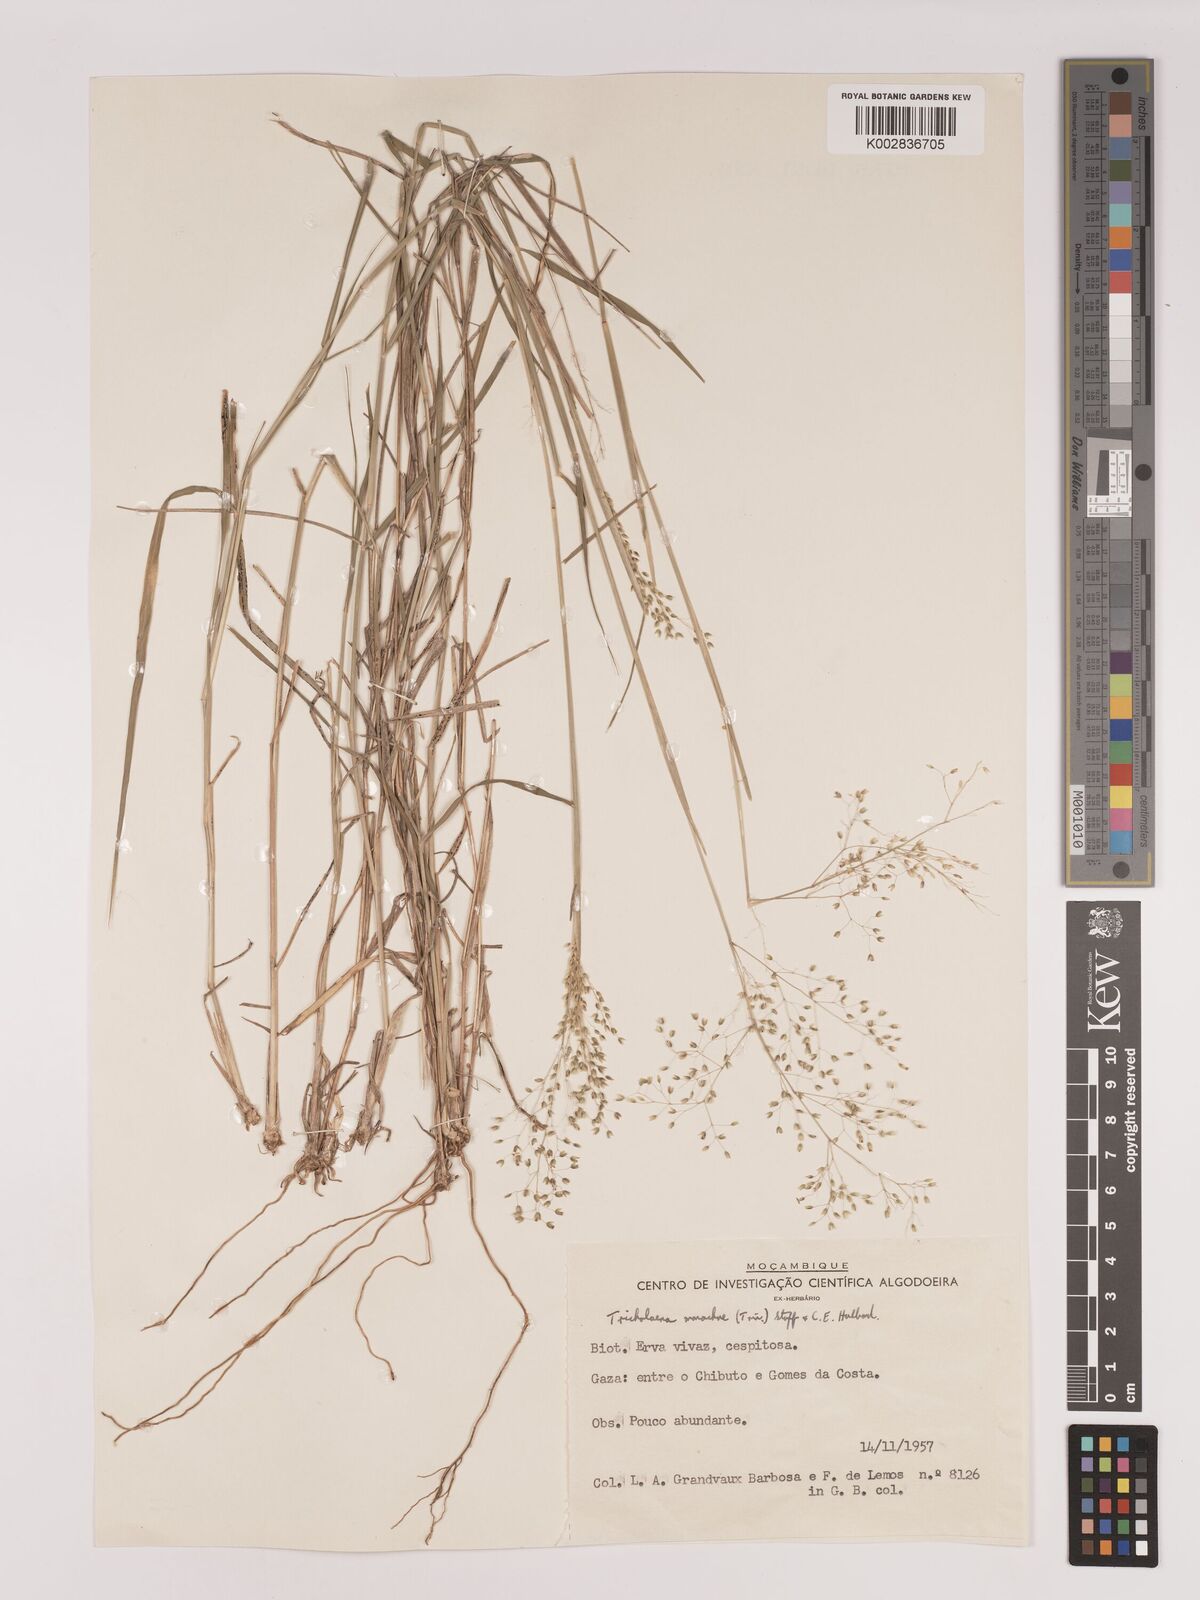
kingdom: Plantae
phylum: Tracheophyta
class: Liliopsida
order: Poales
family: Poaceae
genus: Tricholaena
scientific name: Tricholaena monachne
